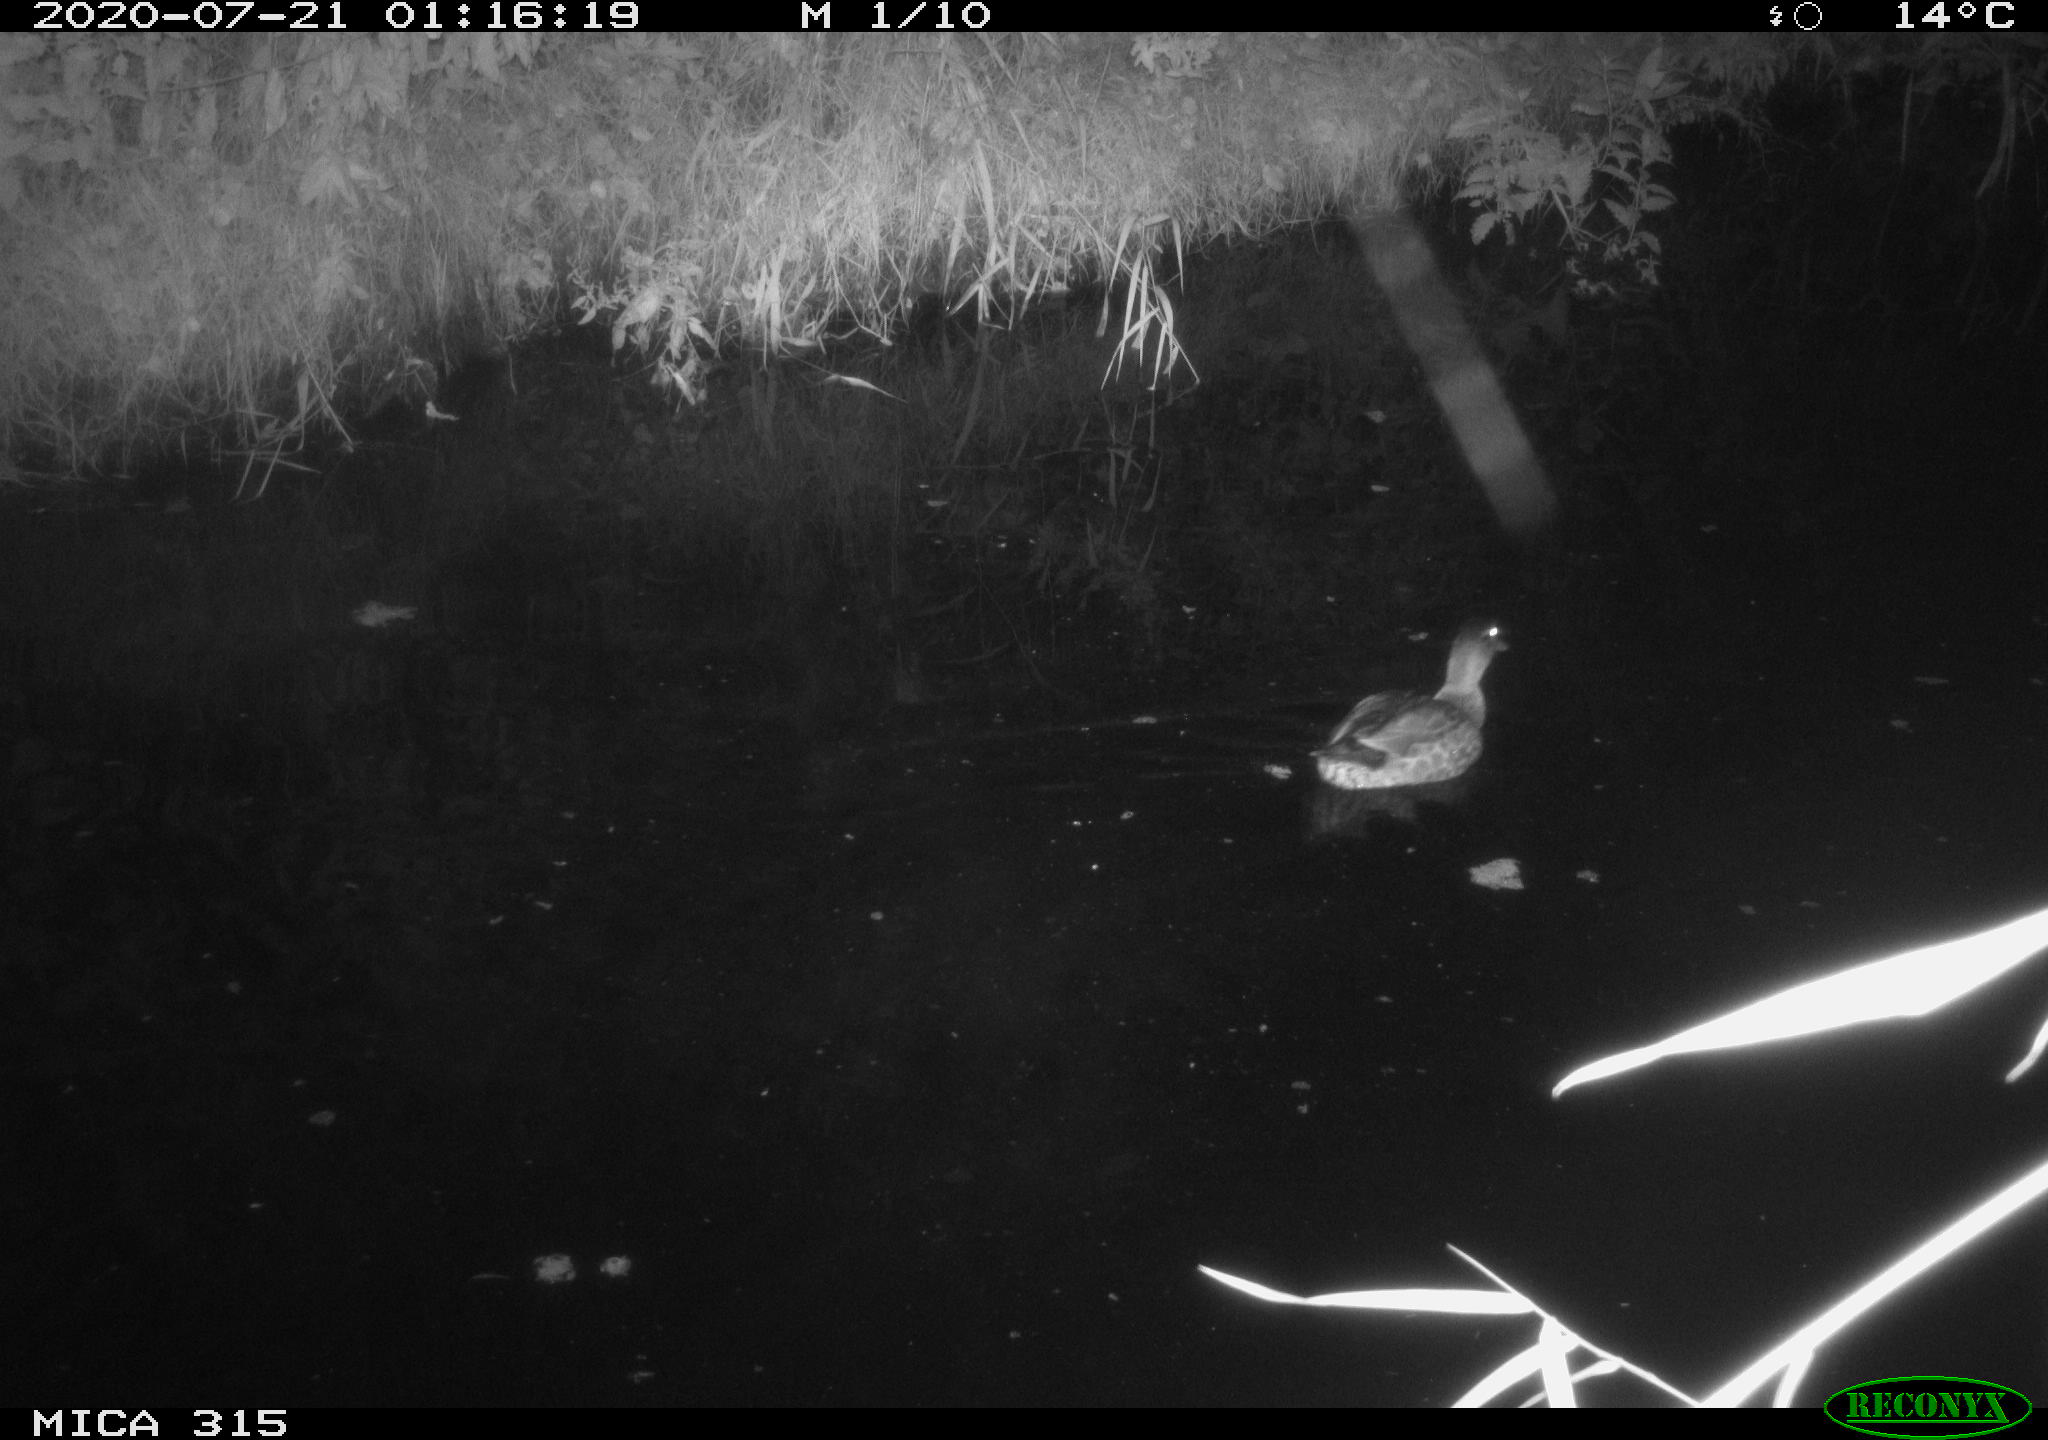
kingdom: Animalia
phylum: Chordata
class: Aves
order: Anseriformes
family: Anatidae
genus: Anas
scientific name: Anas platyrhynchos
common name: Mallard
